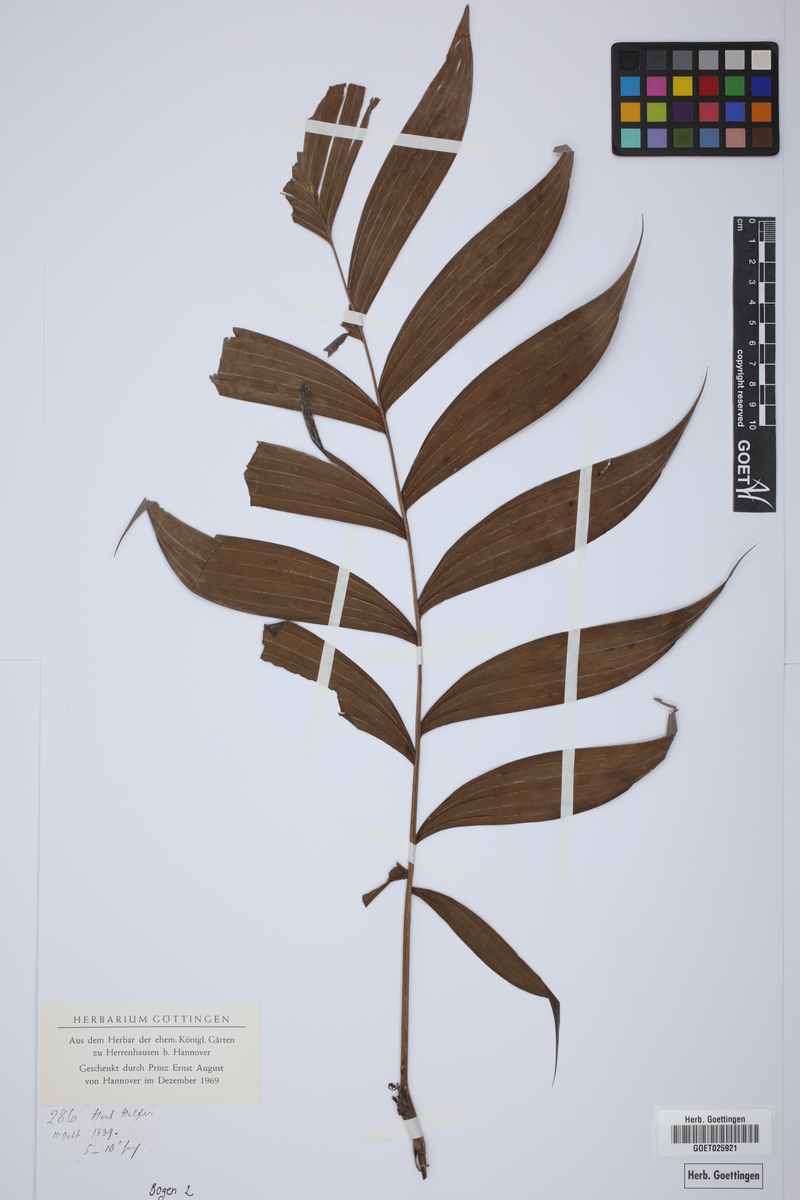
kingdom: Plantae
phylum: Tracheophyta
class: Liliopsida
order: Arecales
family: Arecaceae
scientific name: Arecaceae
